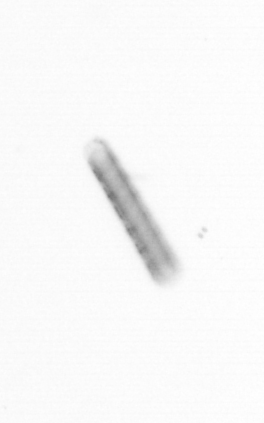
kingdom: Chromista
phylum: Ochrophyta
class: Bacillariophyceae
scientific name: Bacillariophyceae
